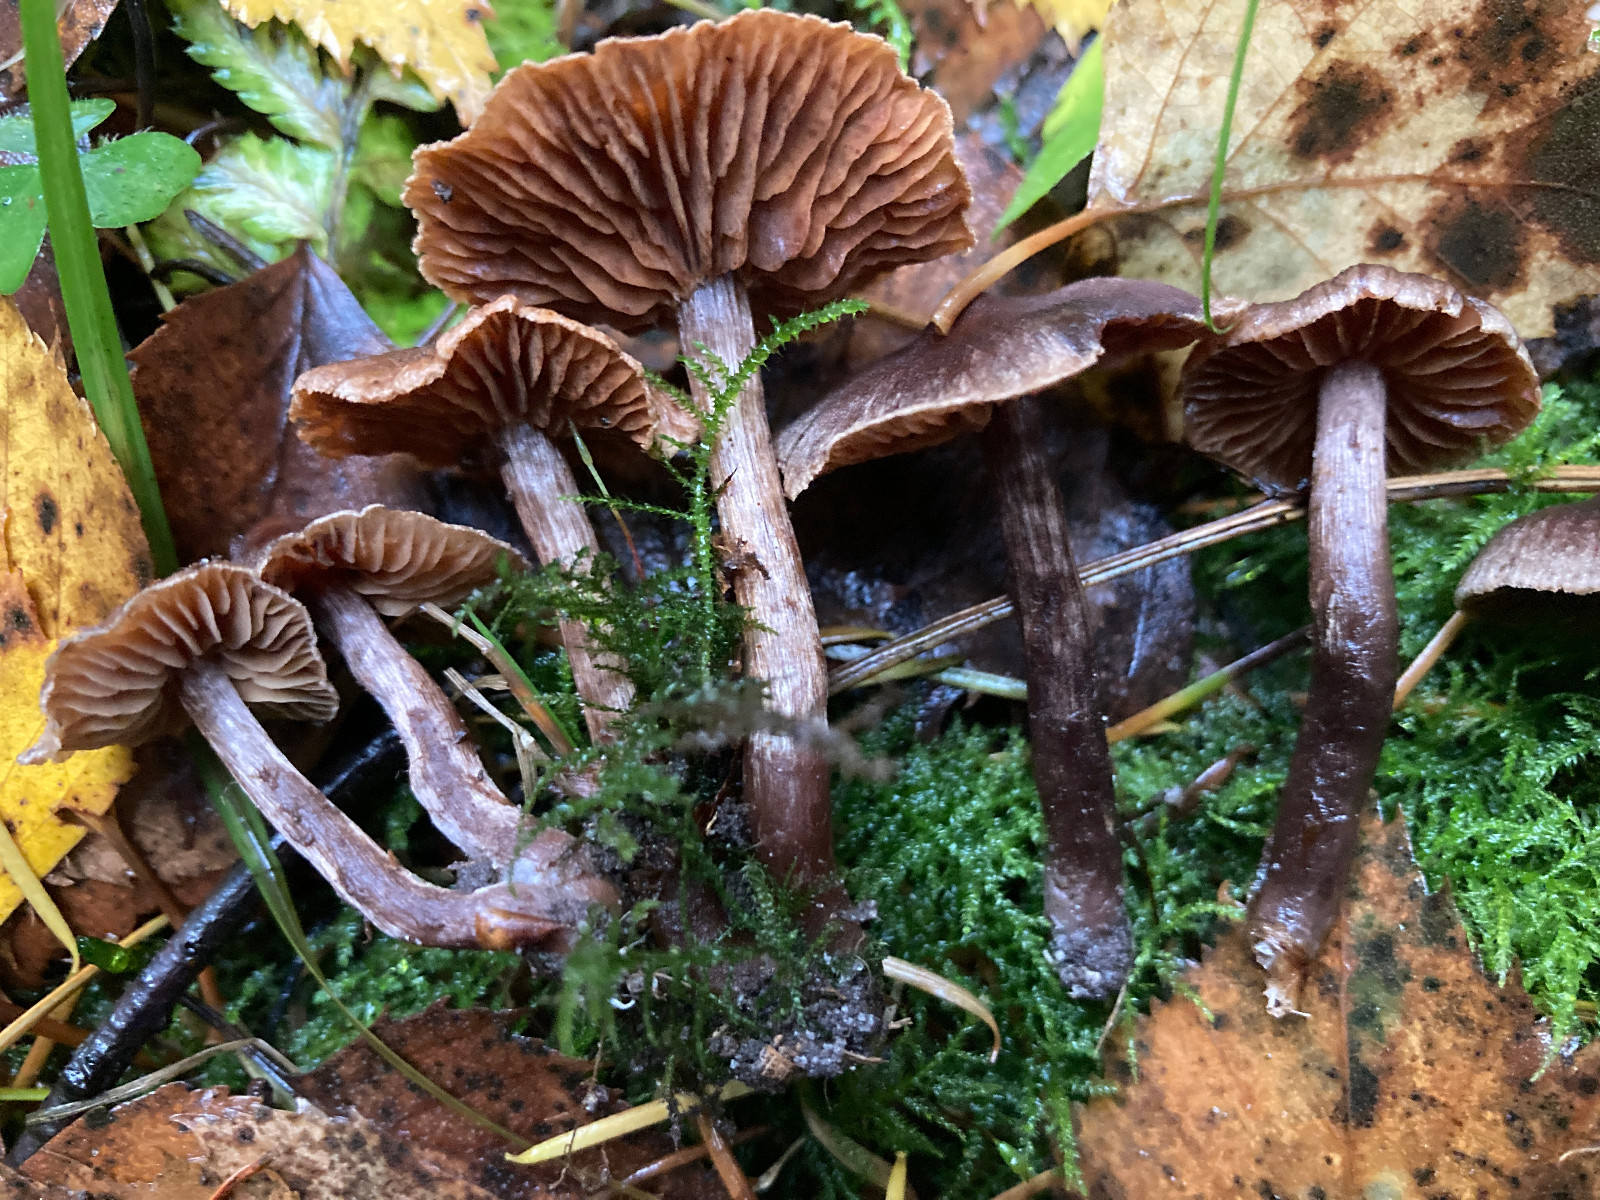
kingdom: Fungi
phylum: Basidiomycota
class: Agaricomycetes
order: Agaricales
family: Cortinariaceae
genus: Cortinarius
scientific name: Cortinarius
